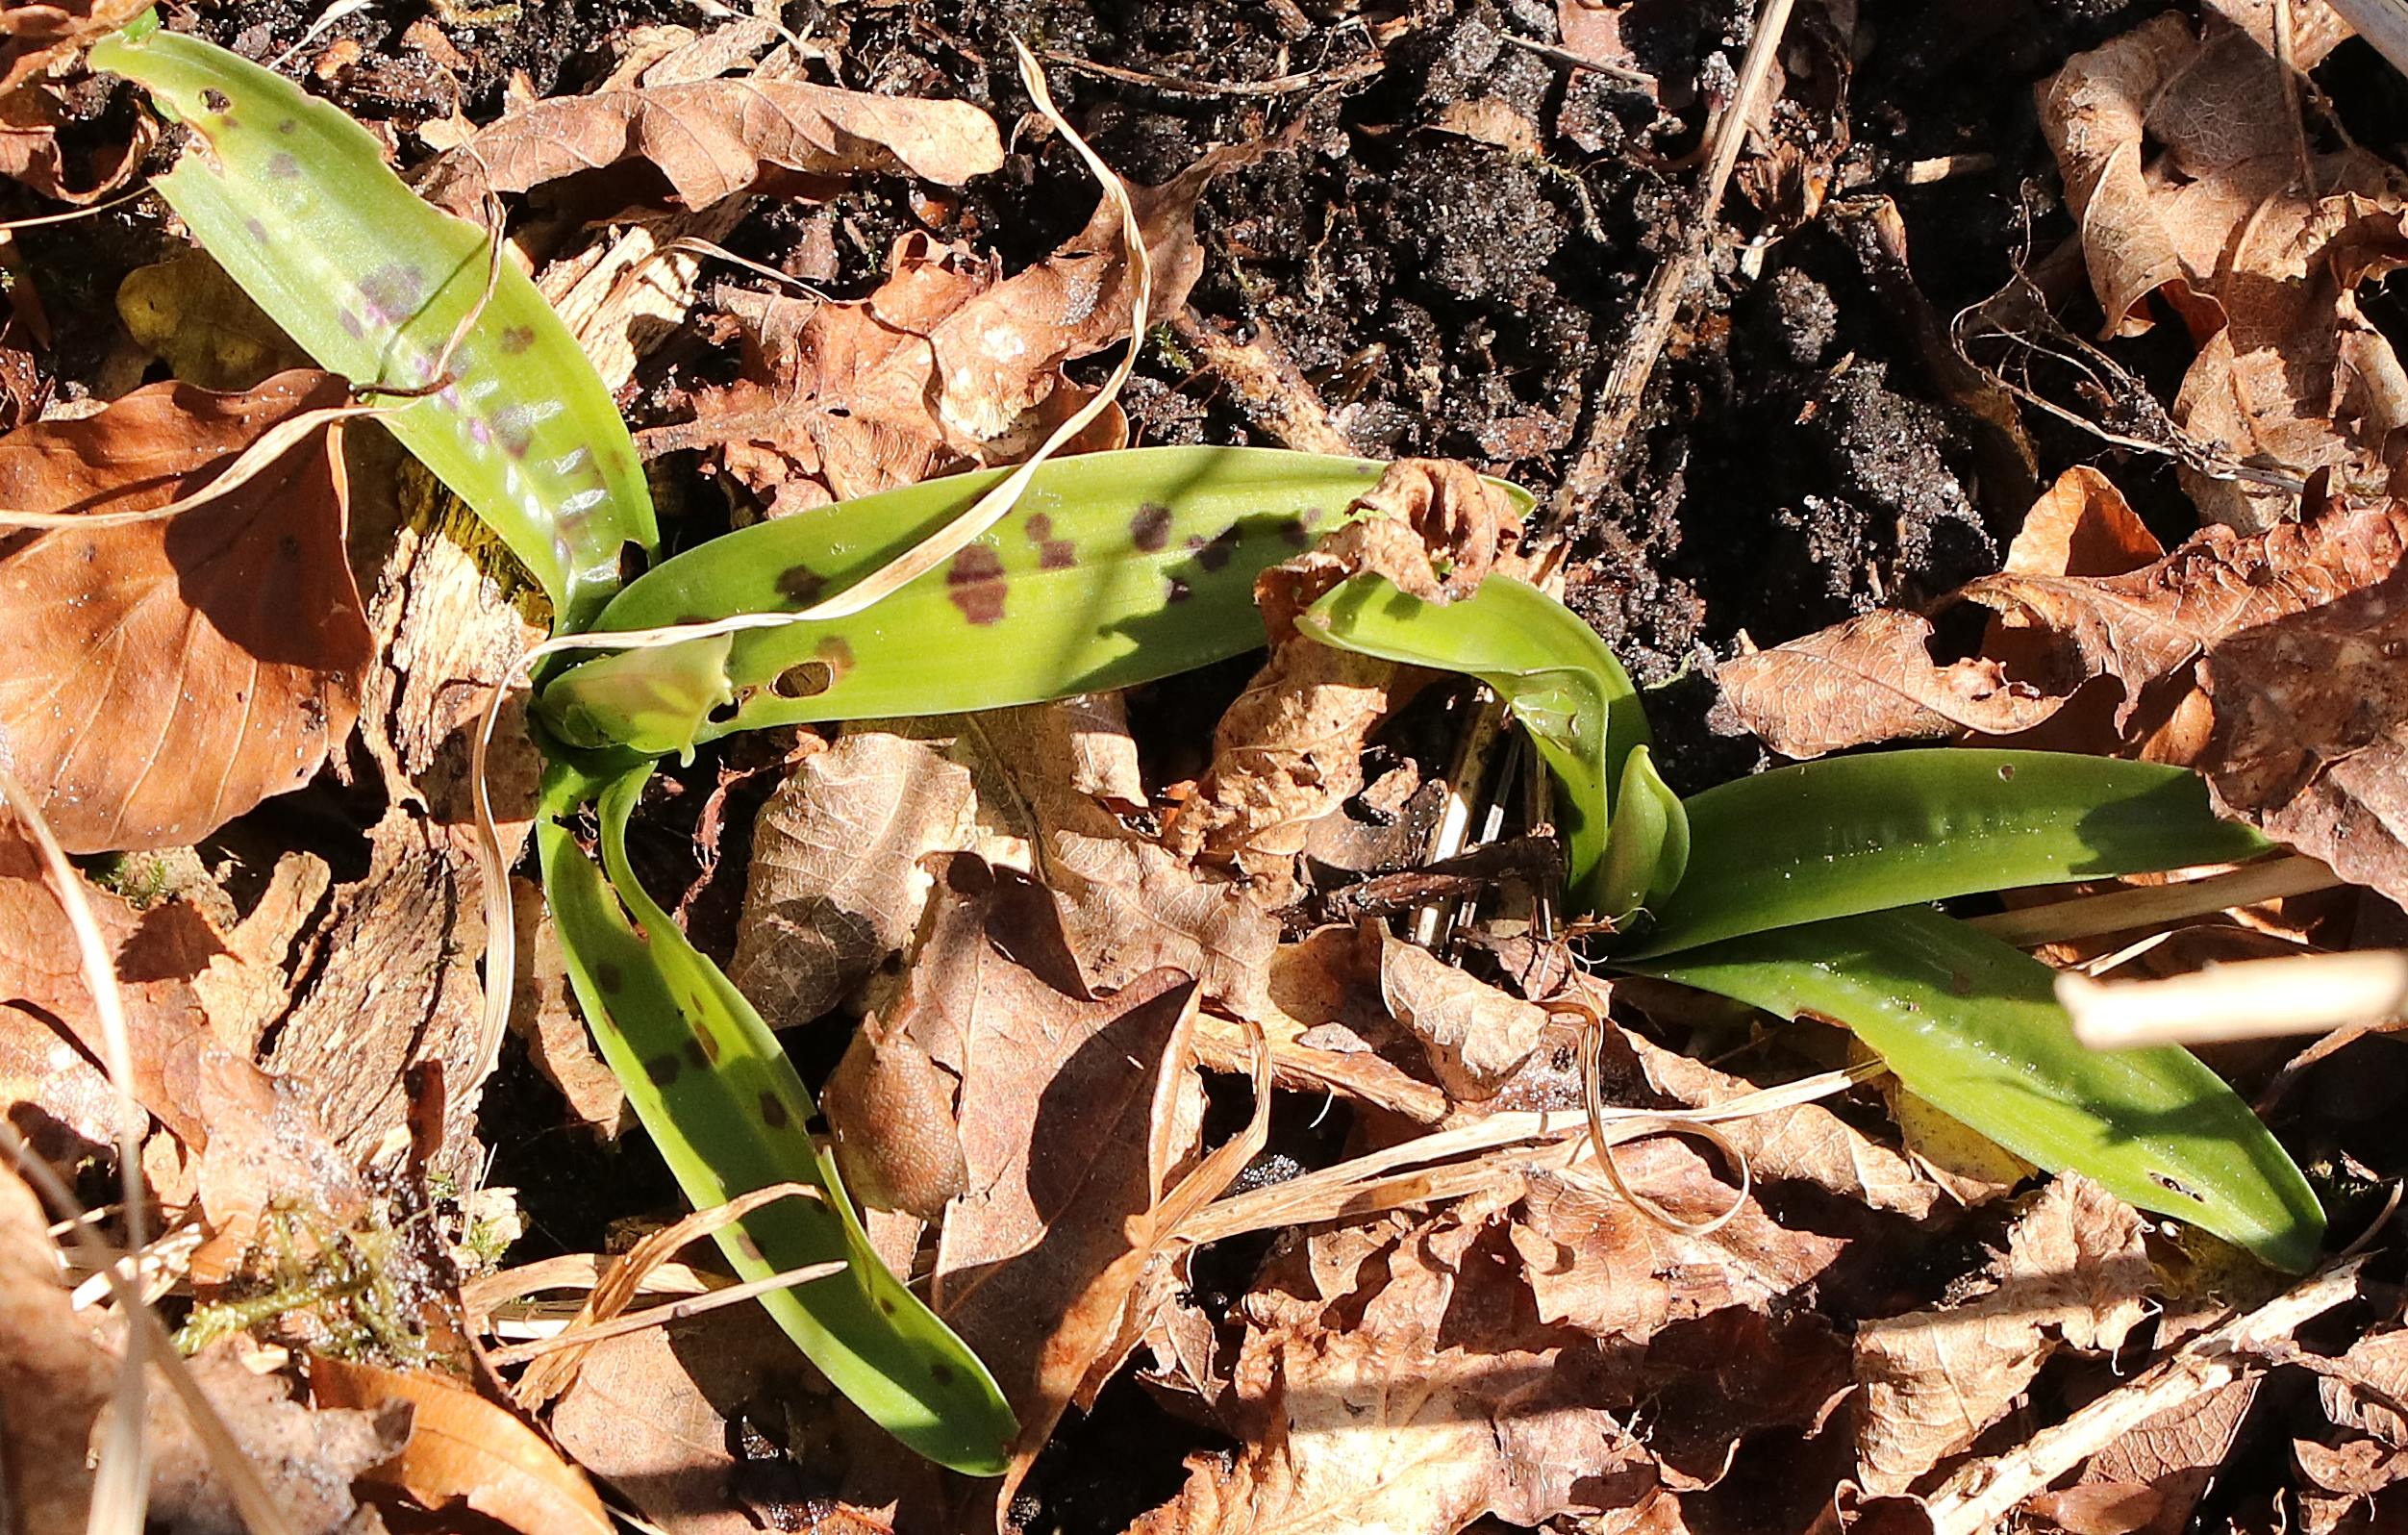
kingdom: Plantae
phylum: Tracheophyta
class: Liliopsida
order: Asparagales
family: Orchidaceae
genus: Orchis
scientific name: Orchis mascula
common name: Tyndakset gøgeurt
